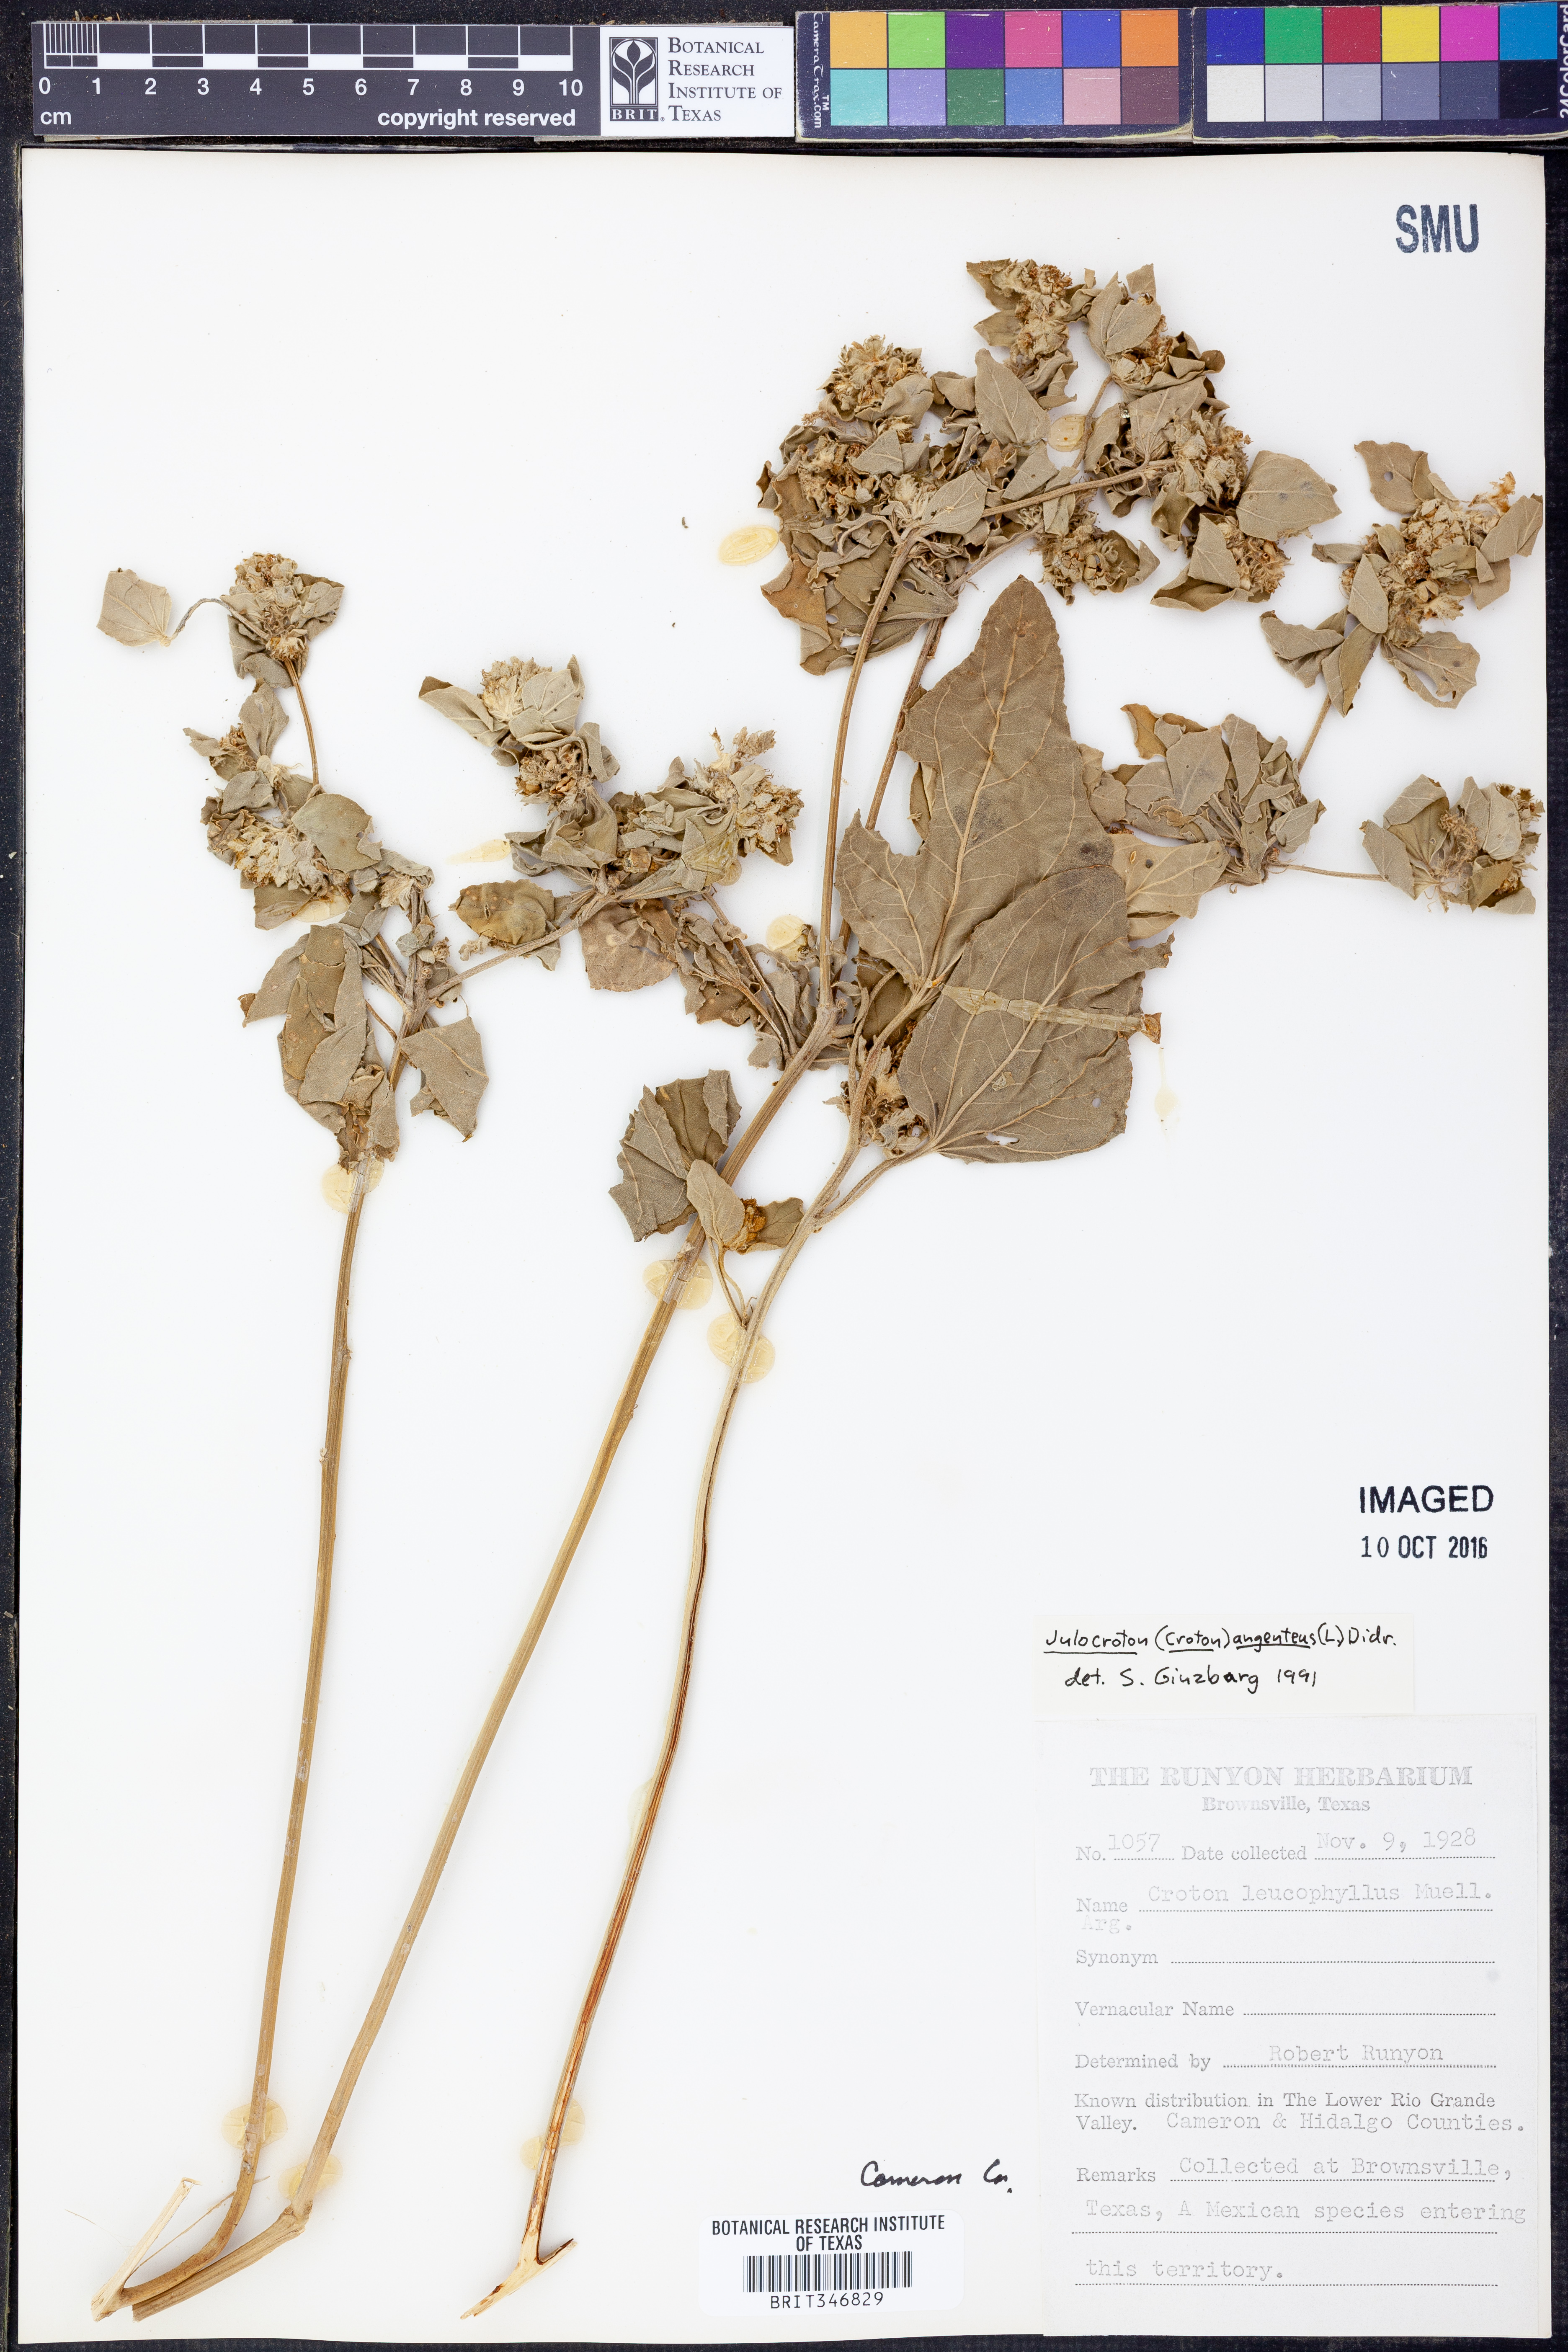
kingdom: Plantae
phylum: Tracheophyta
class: Magnoliopsida
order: Malpighiales
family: Euphorbiaceae
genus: Croton
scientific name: Croton argenteus
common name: Silver july croton
